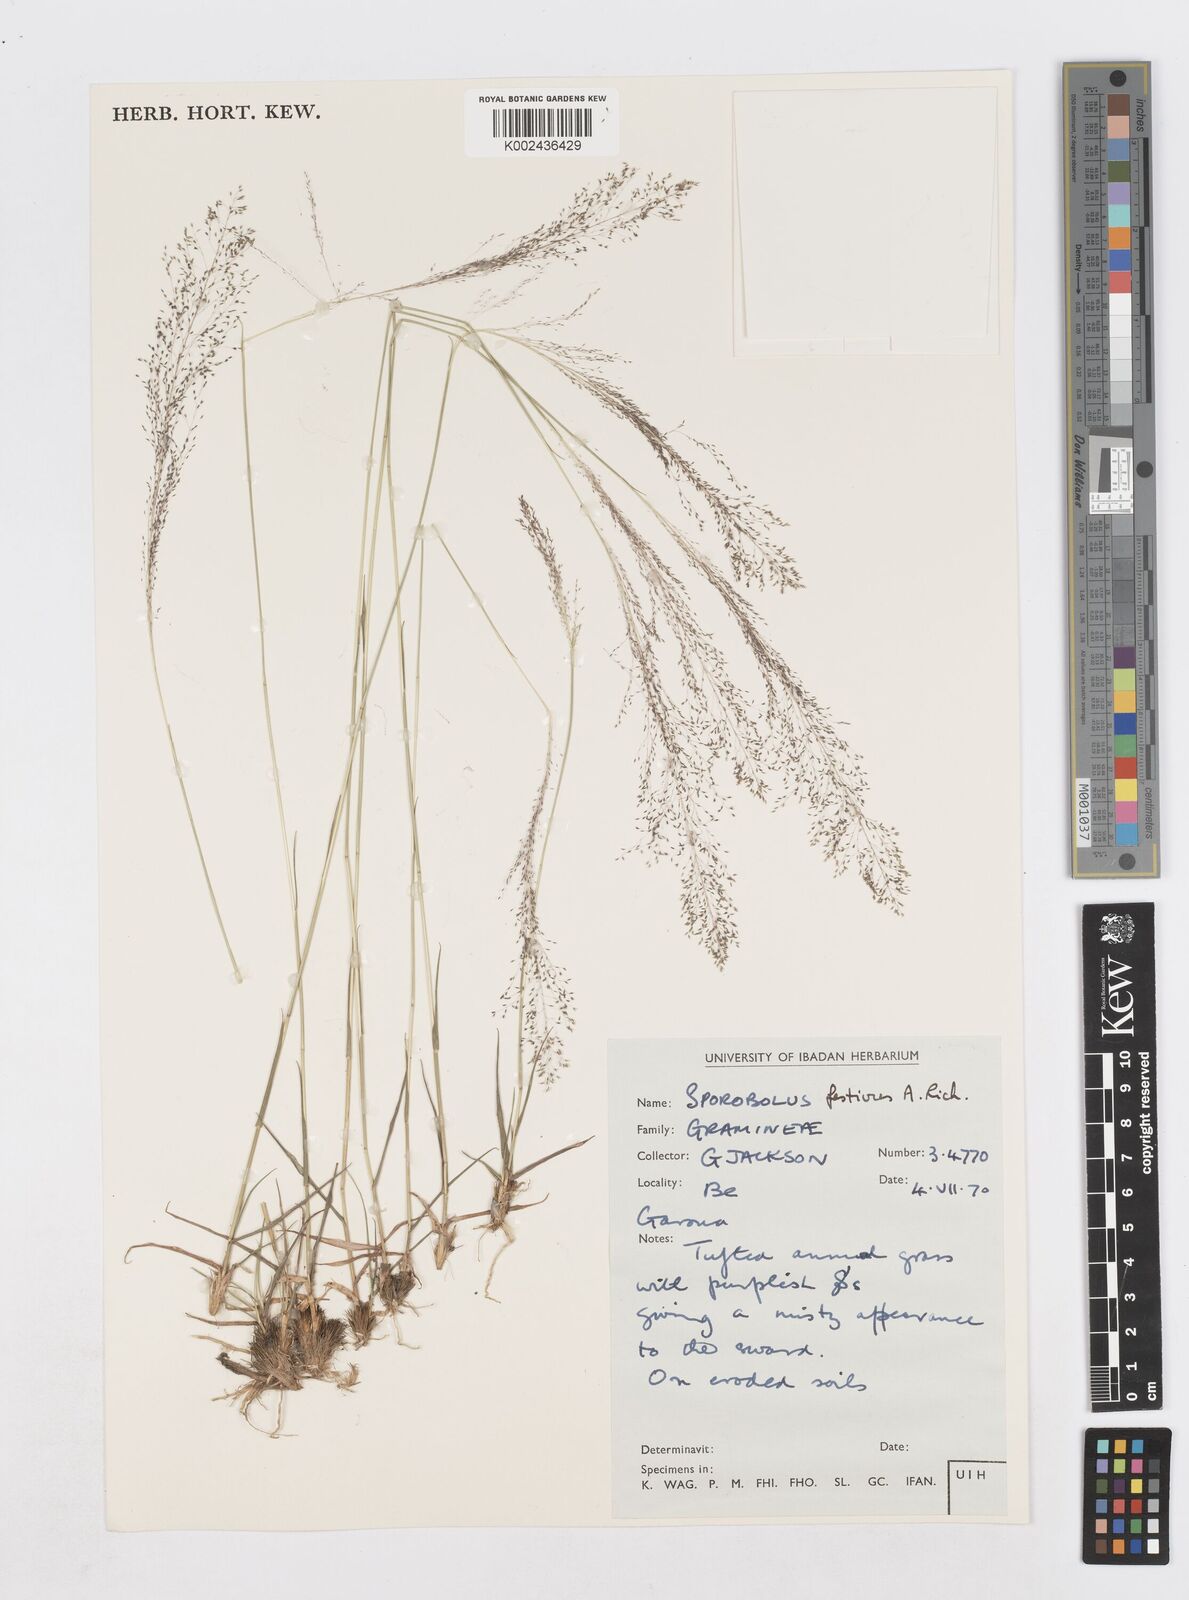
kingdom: Plantae
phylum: Tracheophyta
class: Liliopsida
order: Poales
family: Poaceae
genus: Sporobolus
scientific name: Sporobolus festivus
